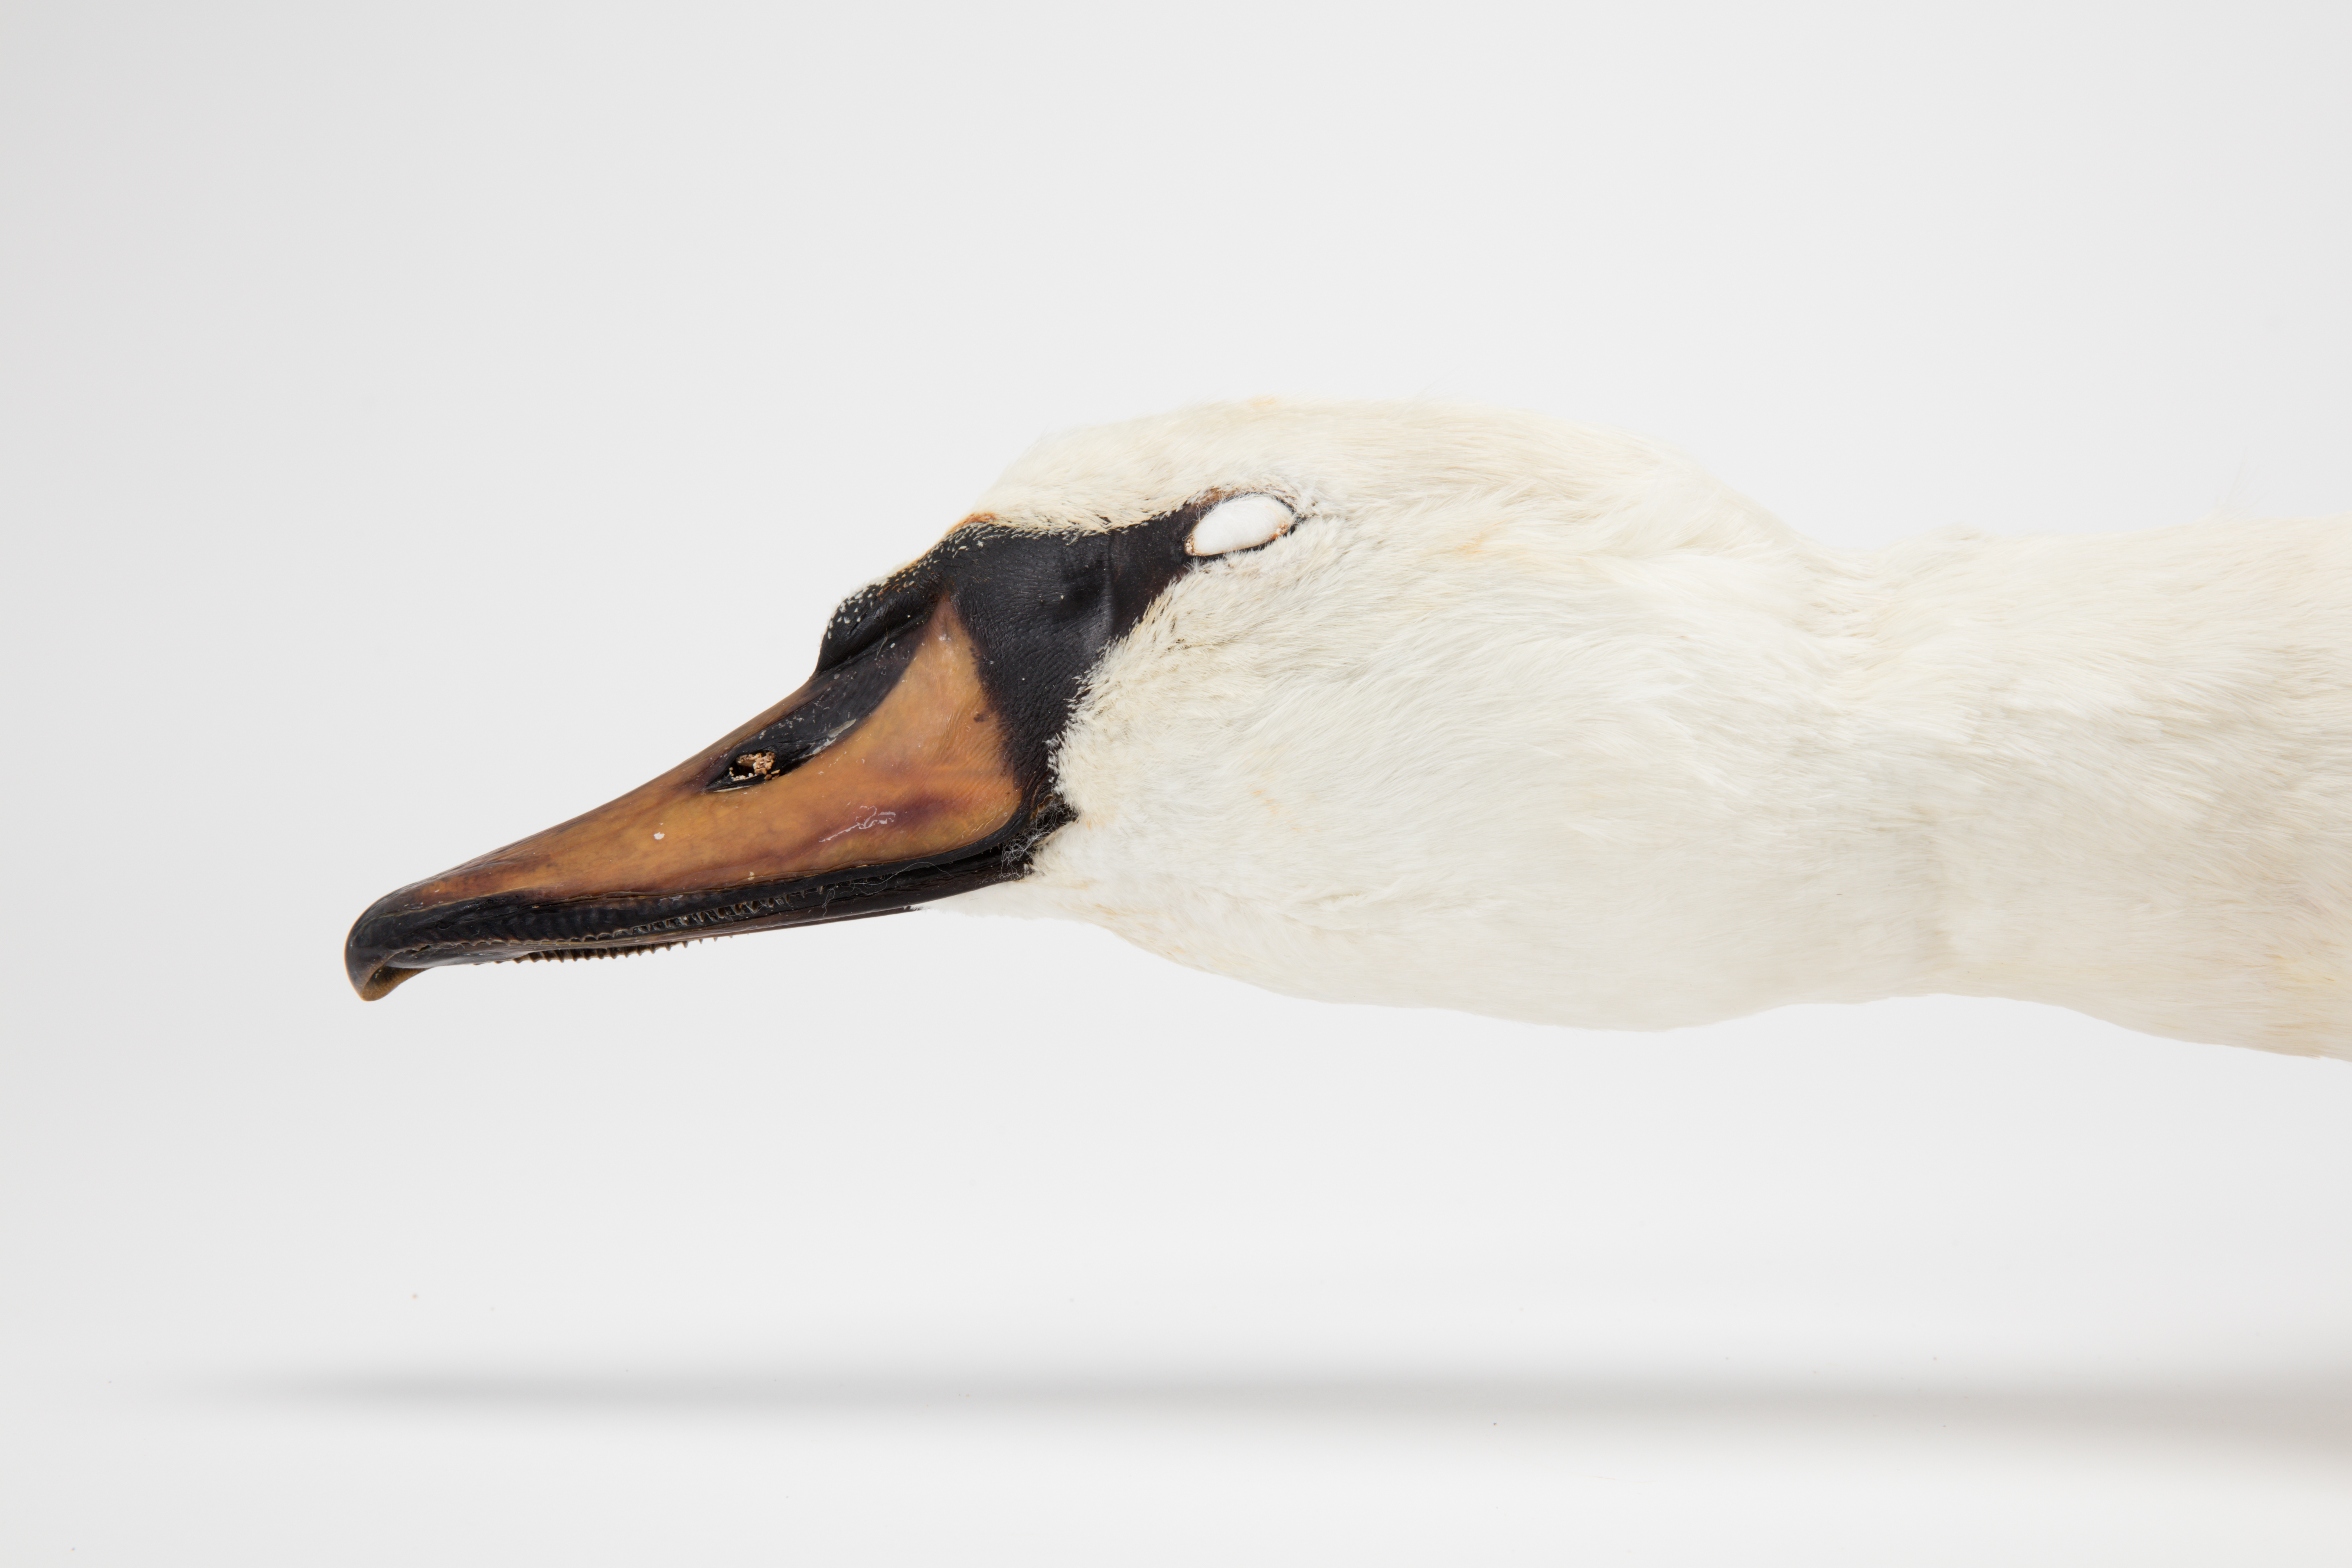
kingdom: Animalia
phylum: Chordata
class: Aves
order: Anseriformes
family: Anatidae
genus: Cygnus
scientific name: Cygnus olor
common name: Mute swan
